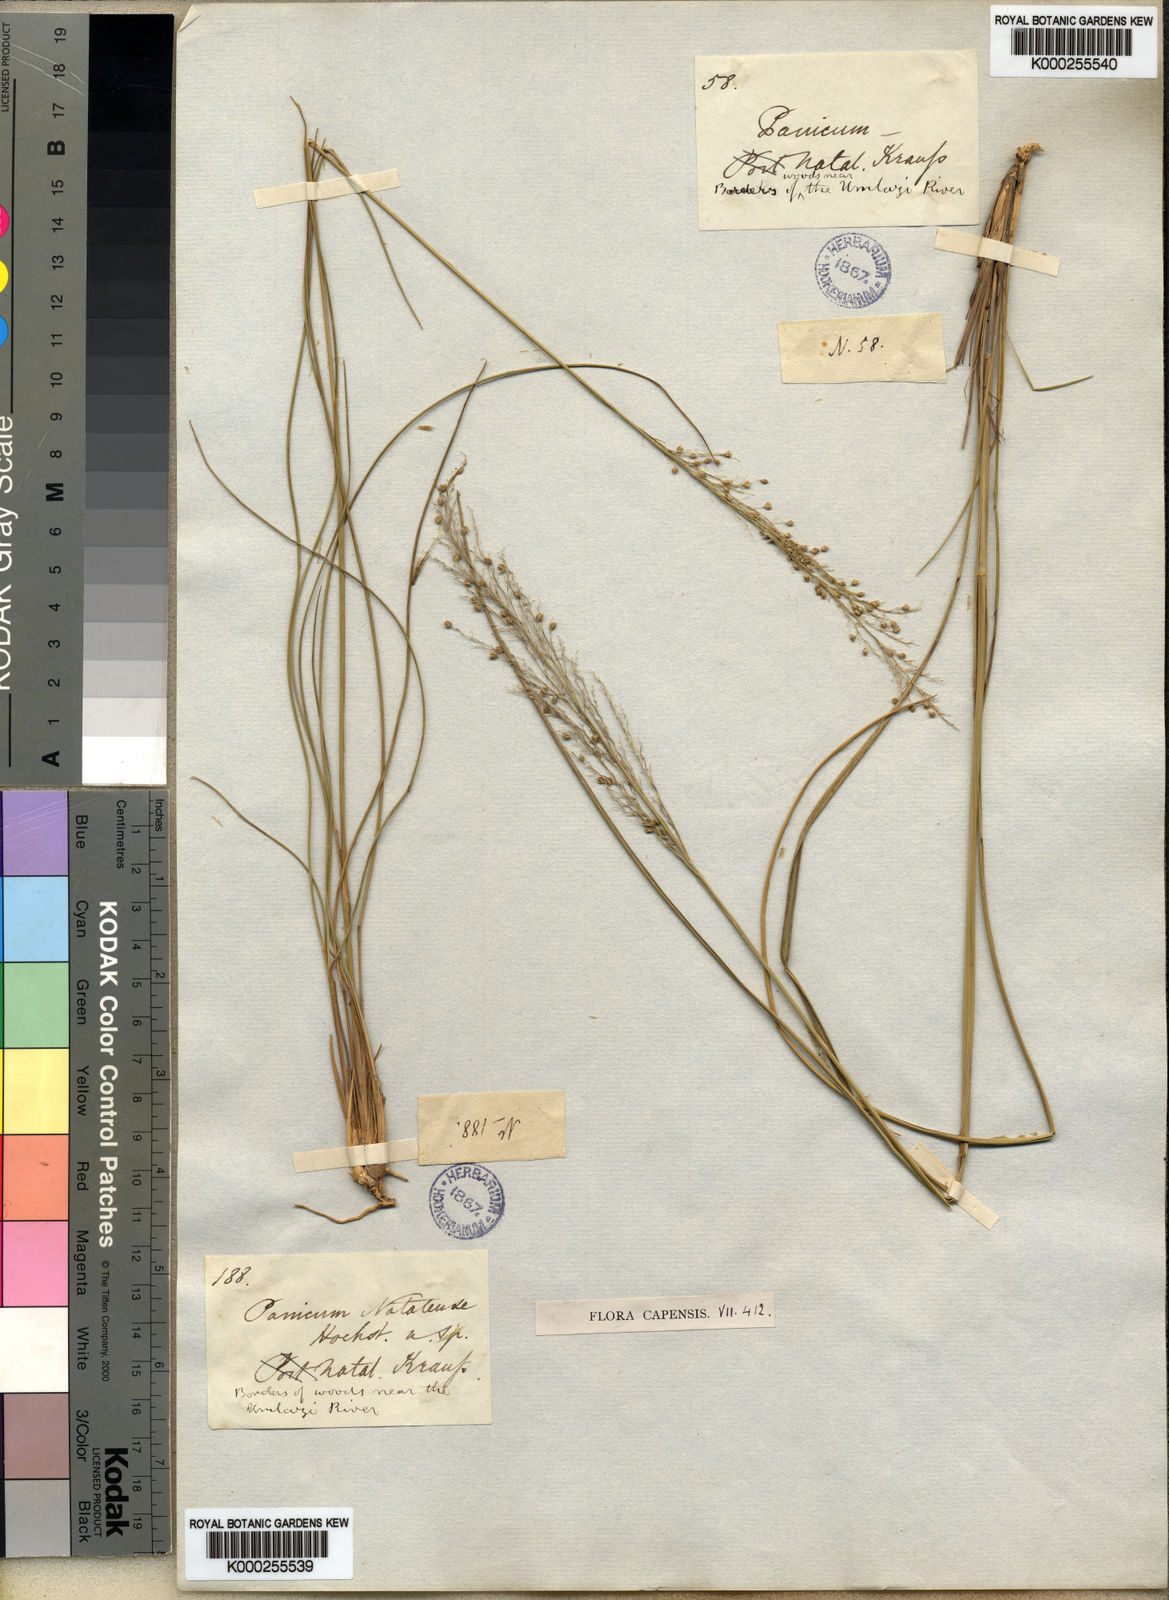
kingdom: Plantae
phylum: Tracheophyta
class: Liliopsida
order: Poales
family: Poaceae
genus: Trichanthecium
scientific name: Trichanthecium natalense
